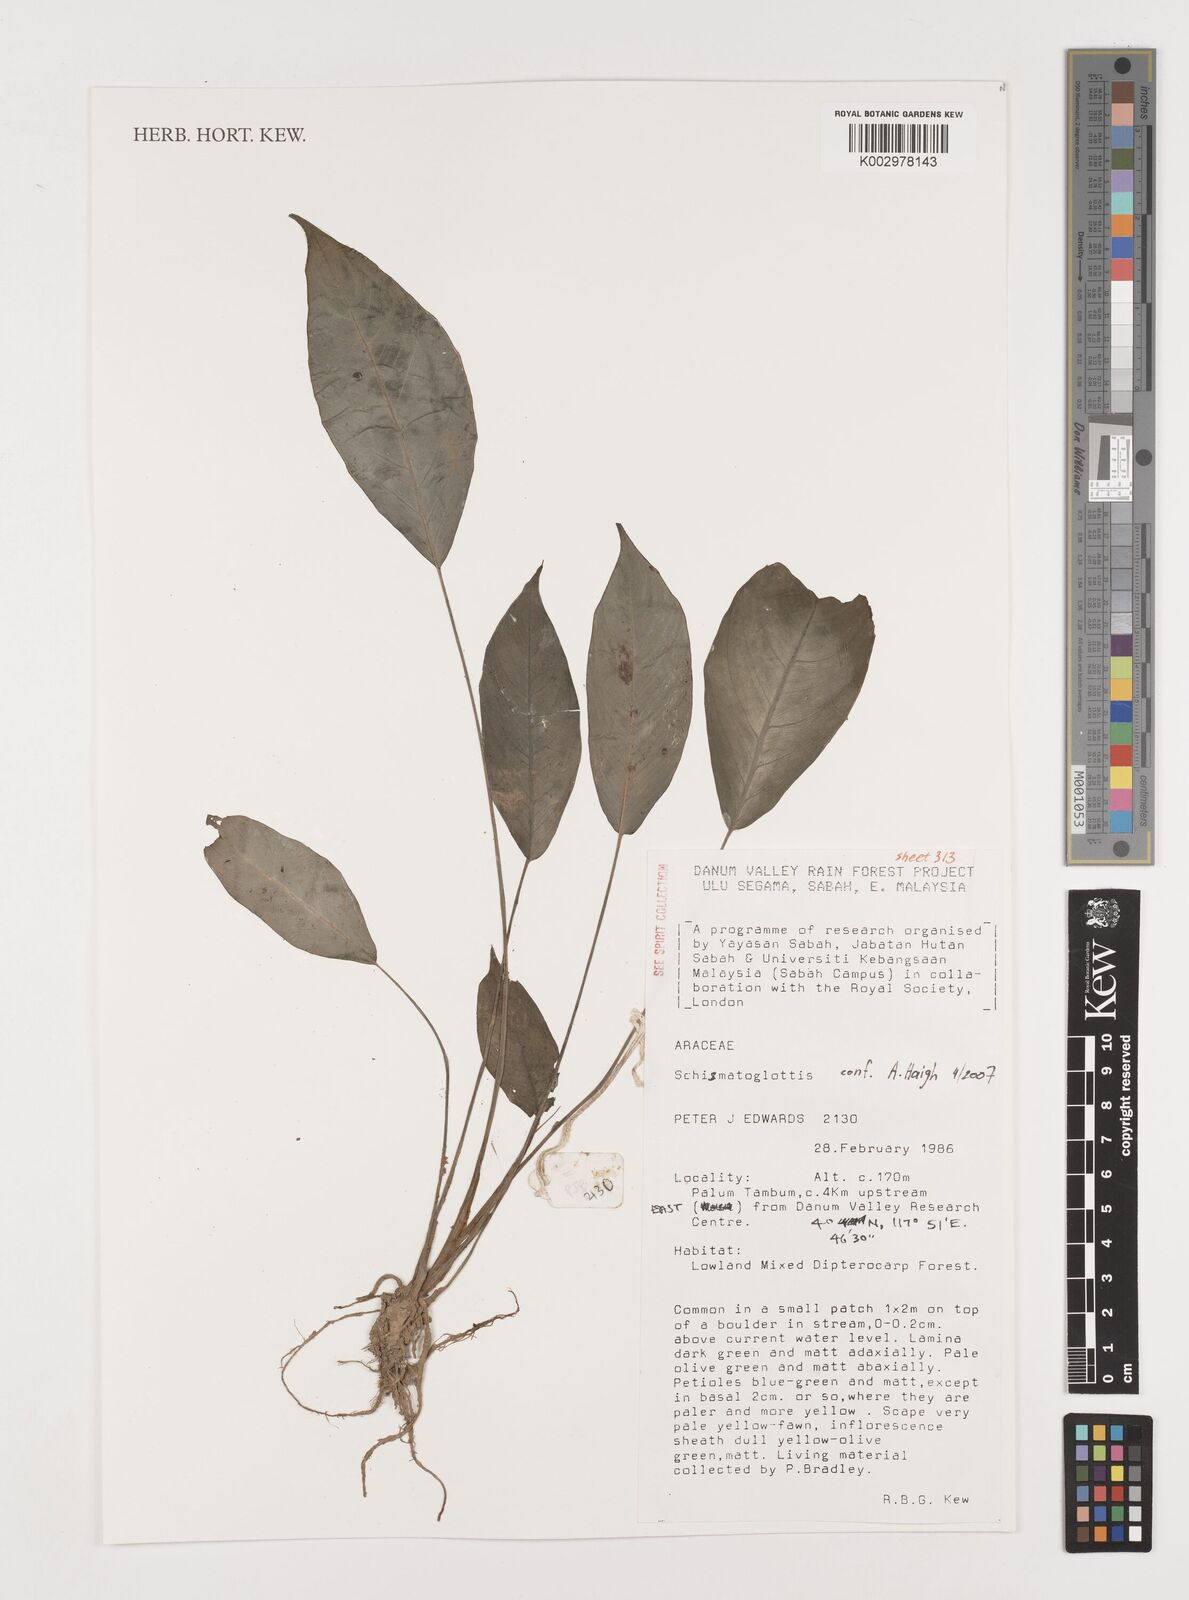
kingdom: Plantae
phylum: Tracheophyta
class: Liliopsida
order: Alismatales
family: Araceae
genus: Schismatoglottis
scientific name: Schismatoglottis
